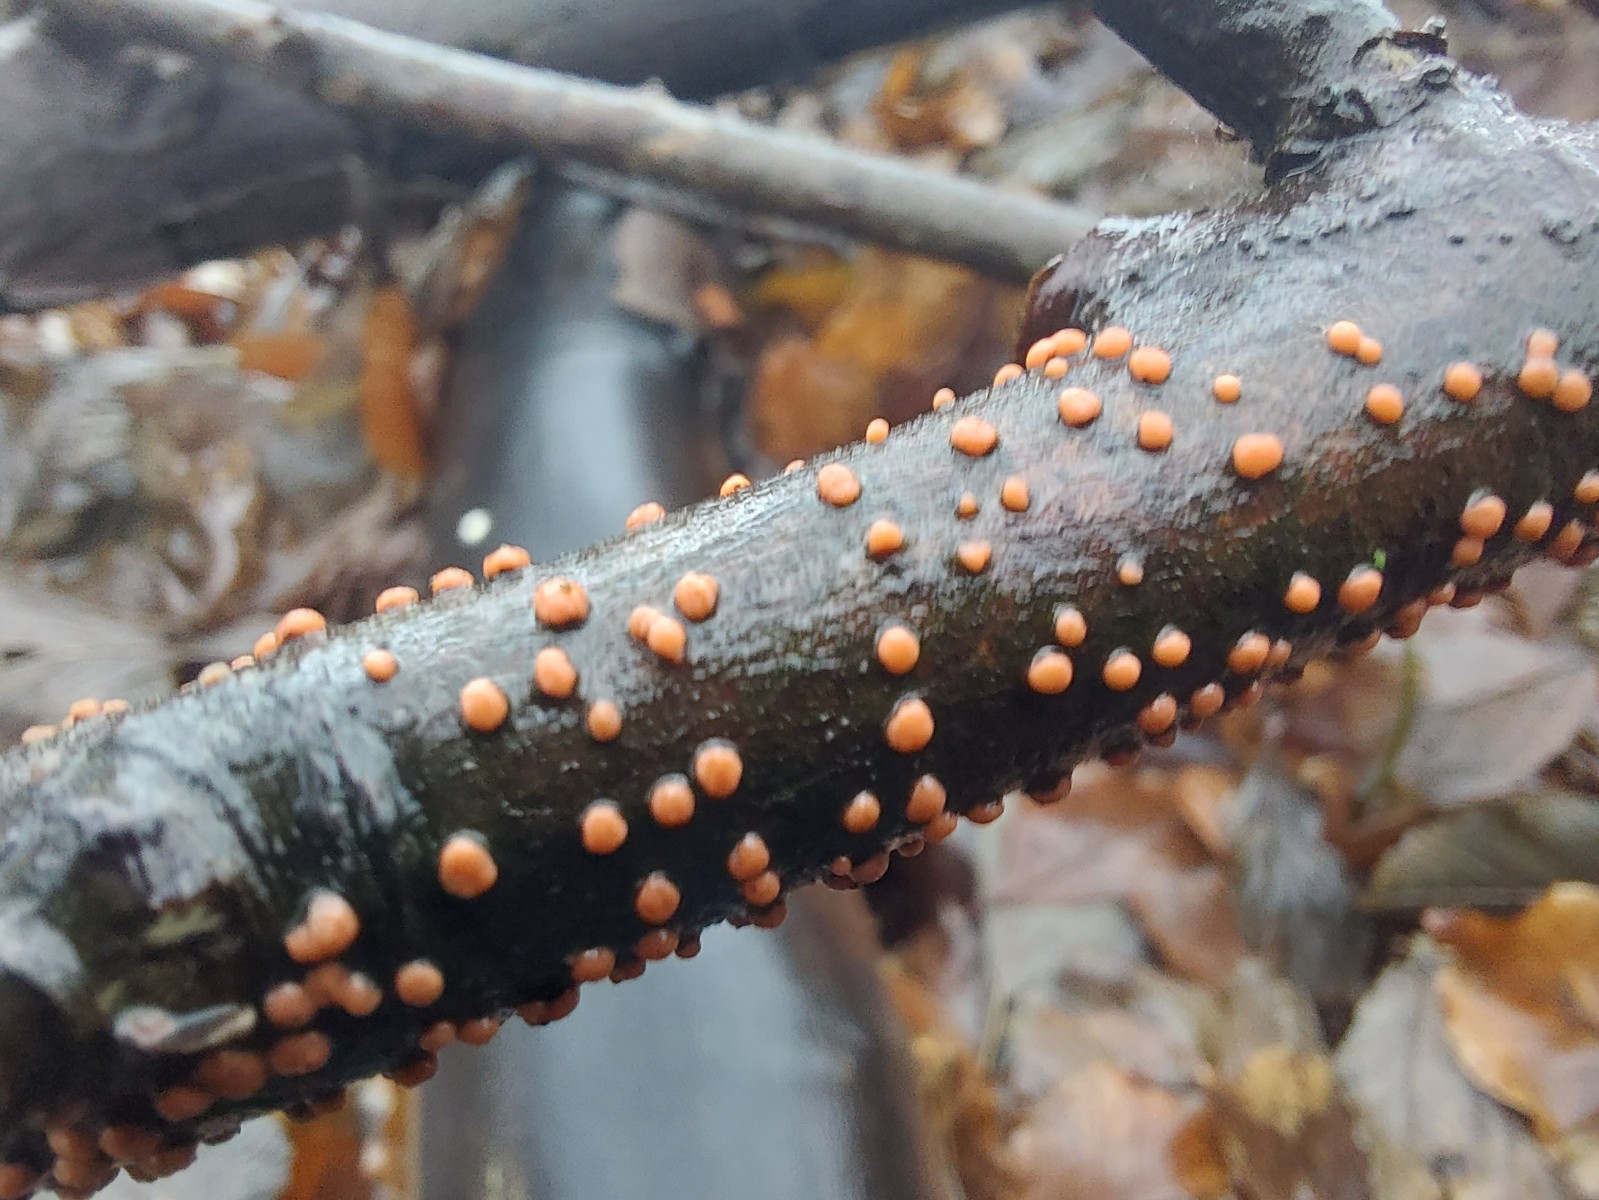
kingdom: Fungi
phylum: Ascomycota
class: Sordariomycetes
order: Hypocreales
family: Nectriaceae
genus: Nectria
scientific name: Nectria cinnabarina
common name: almindelig cinnobersvamp
